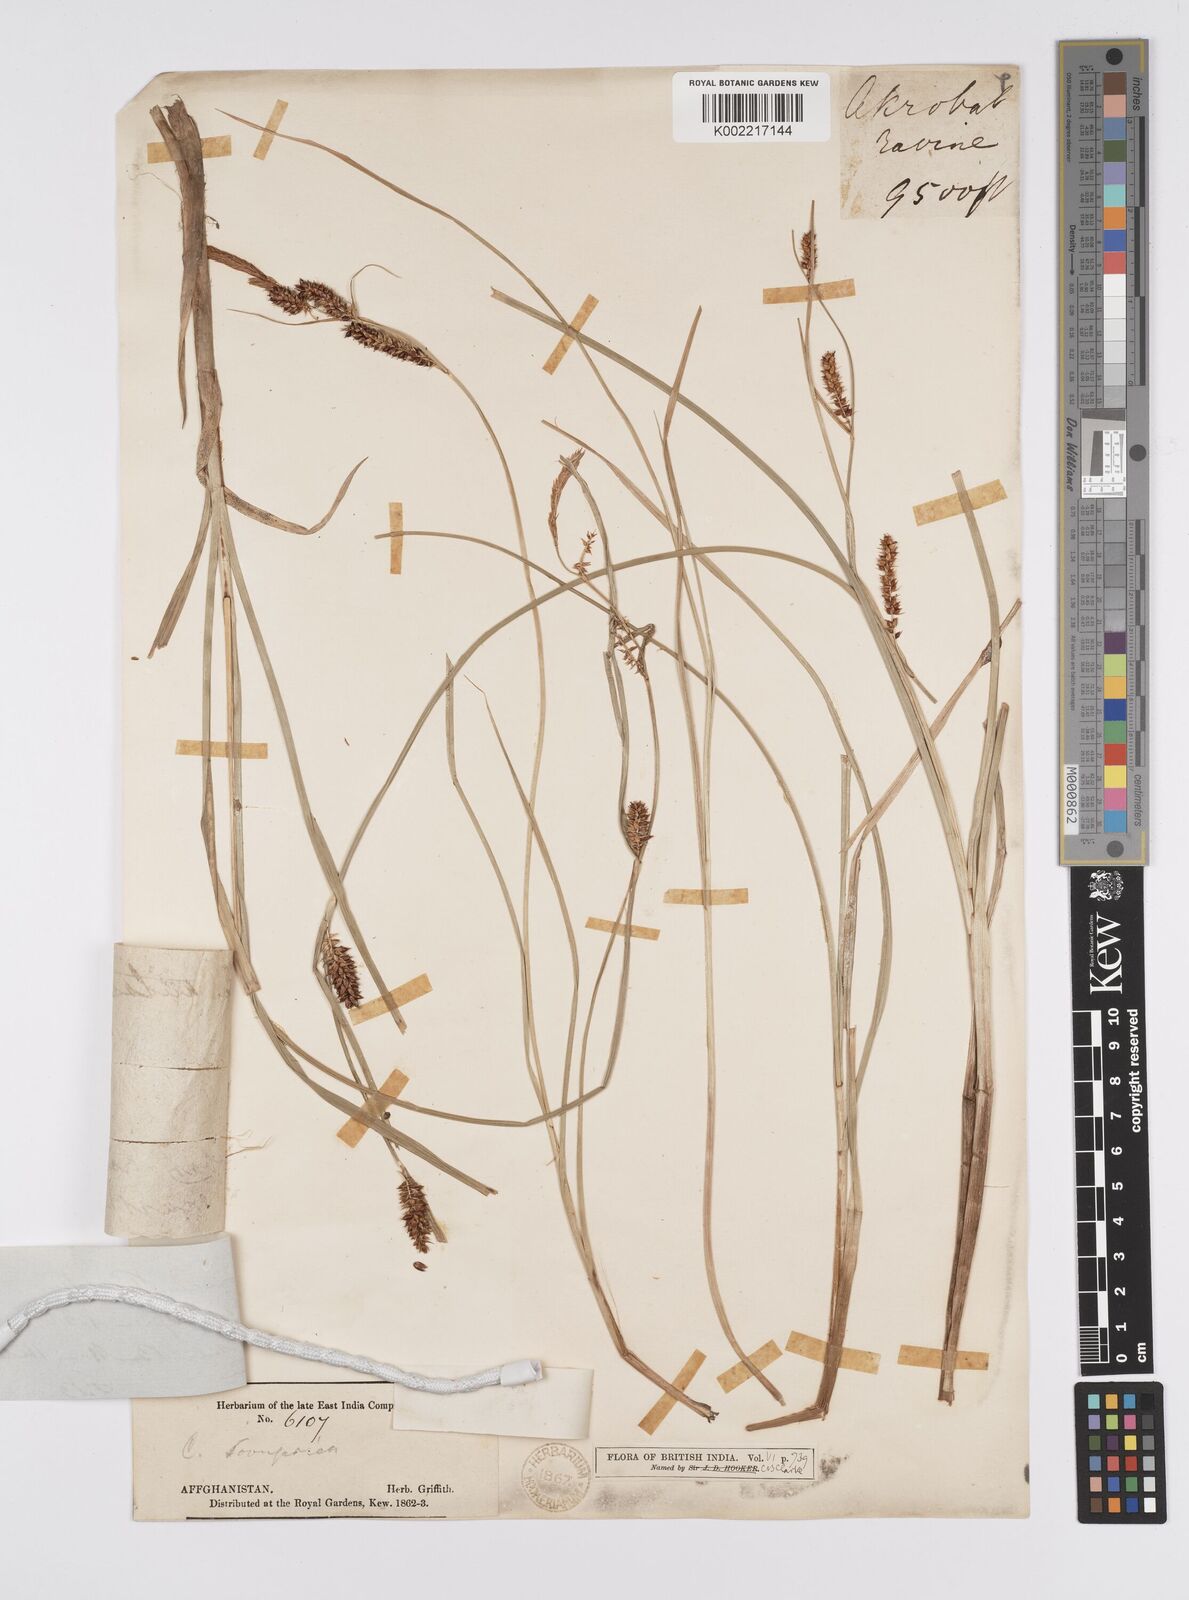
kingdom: Plantae
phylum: Tracheophyta
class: Liliopsida
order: Poales
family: Cyperaceae
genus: Carex
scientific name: Carex heterostachya
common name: Different-spike sedge
